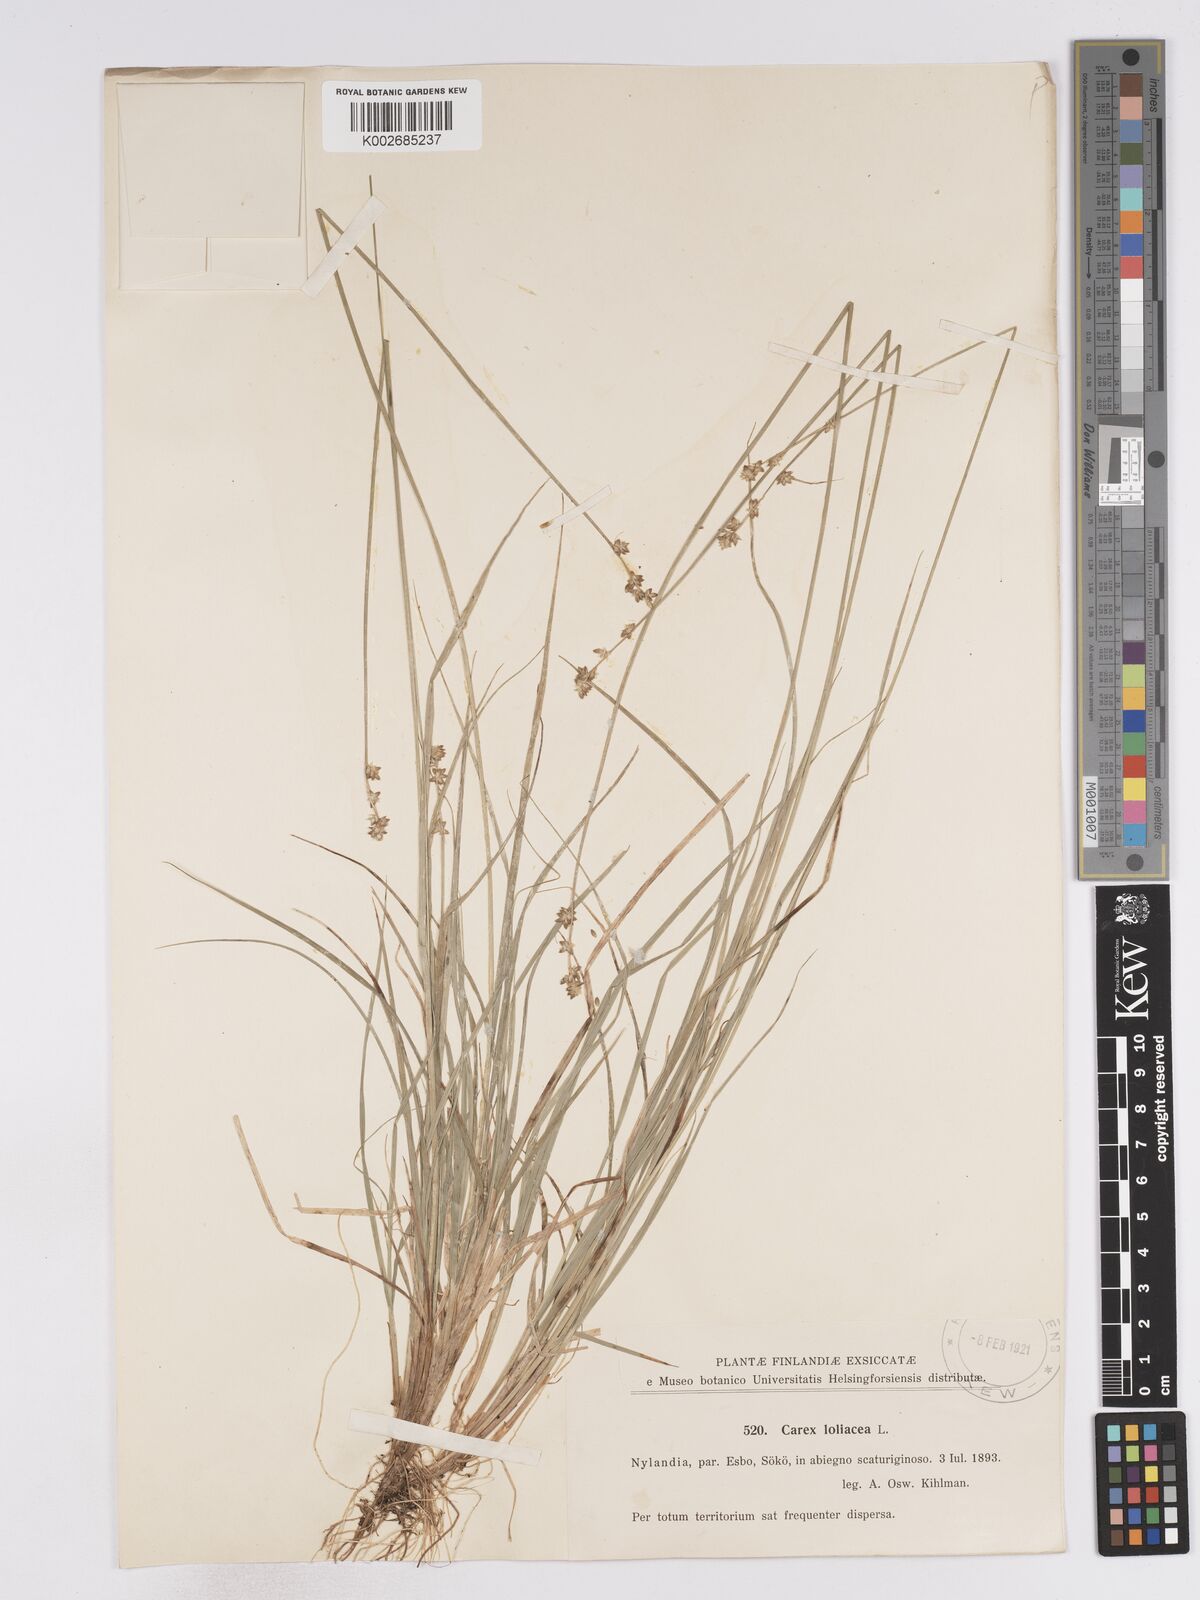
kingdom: Plantae
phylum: Tracheophyta
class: Liliopsida
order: Poales
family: Cyperaceae
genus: Carex
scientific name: Carex loliacea
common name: Ryegrass sedge
